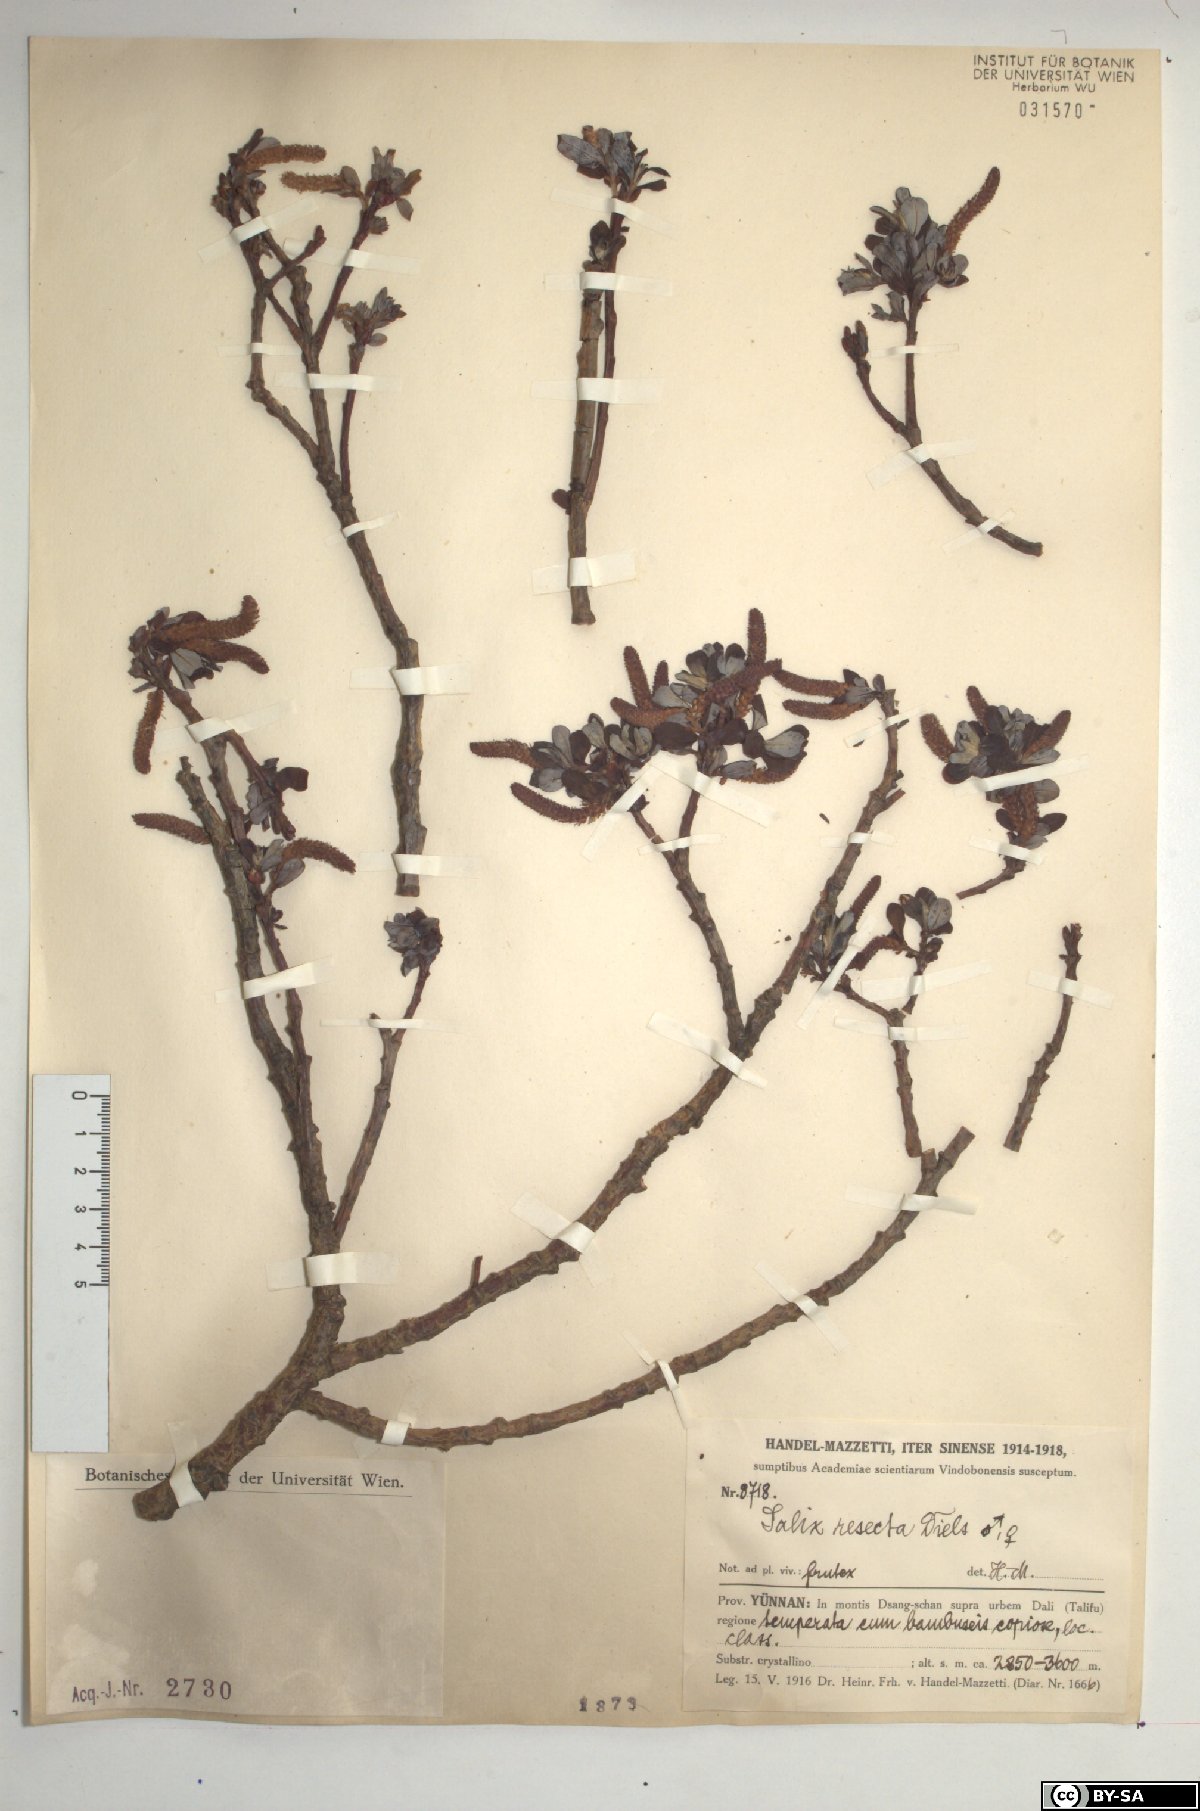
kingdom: Plantae
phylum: Tracheophyta
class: Magnoliopsida
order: Malpighiales
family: Salicaceae
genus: Salix
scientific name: Salix resecta
